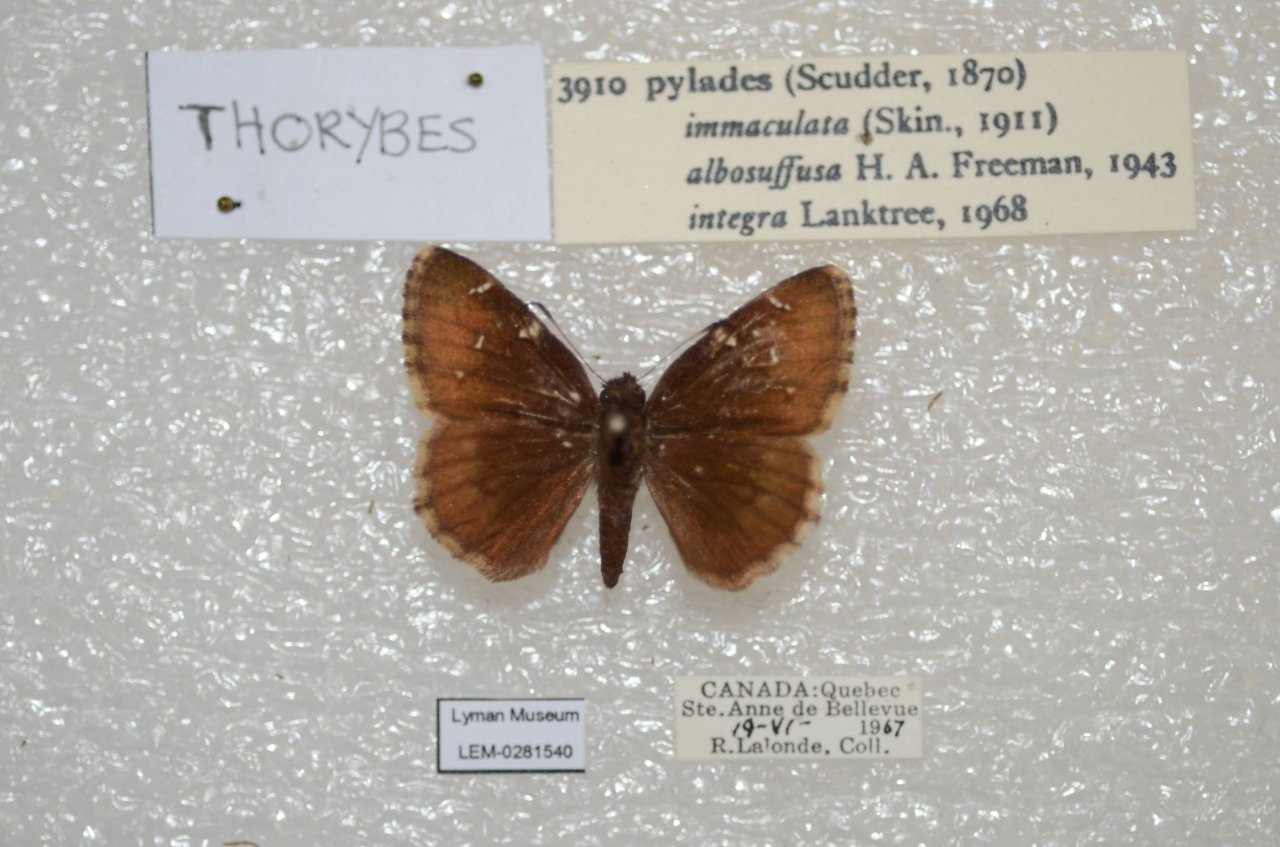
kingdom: Animalia
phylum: Arthropoda
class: Insecta
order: Lepidoptera
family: Hesperiidae
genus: Autochton
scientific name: Autochton
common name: Northern Cloudywing
